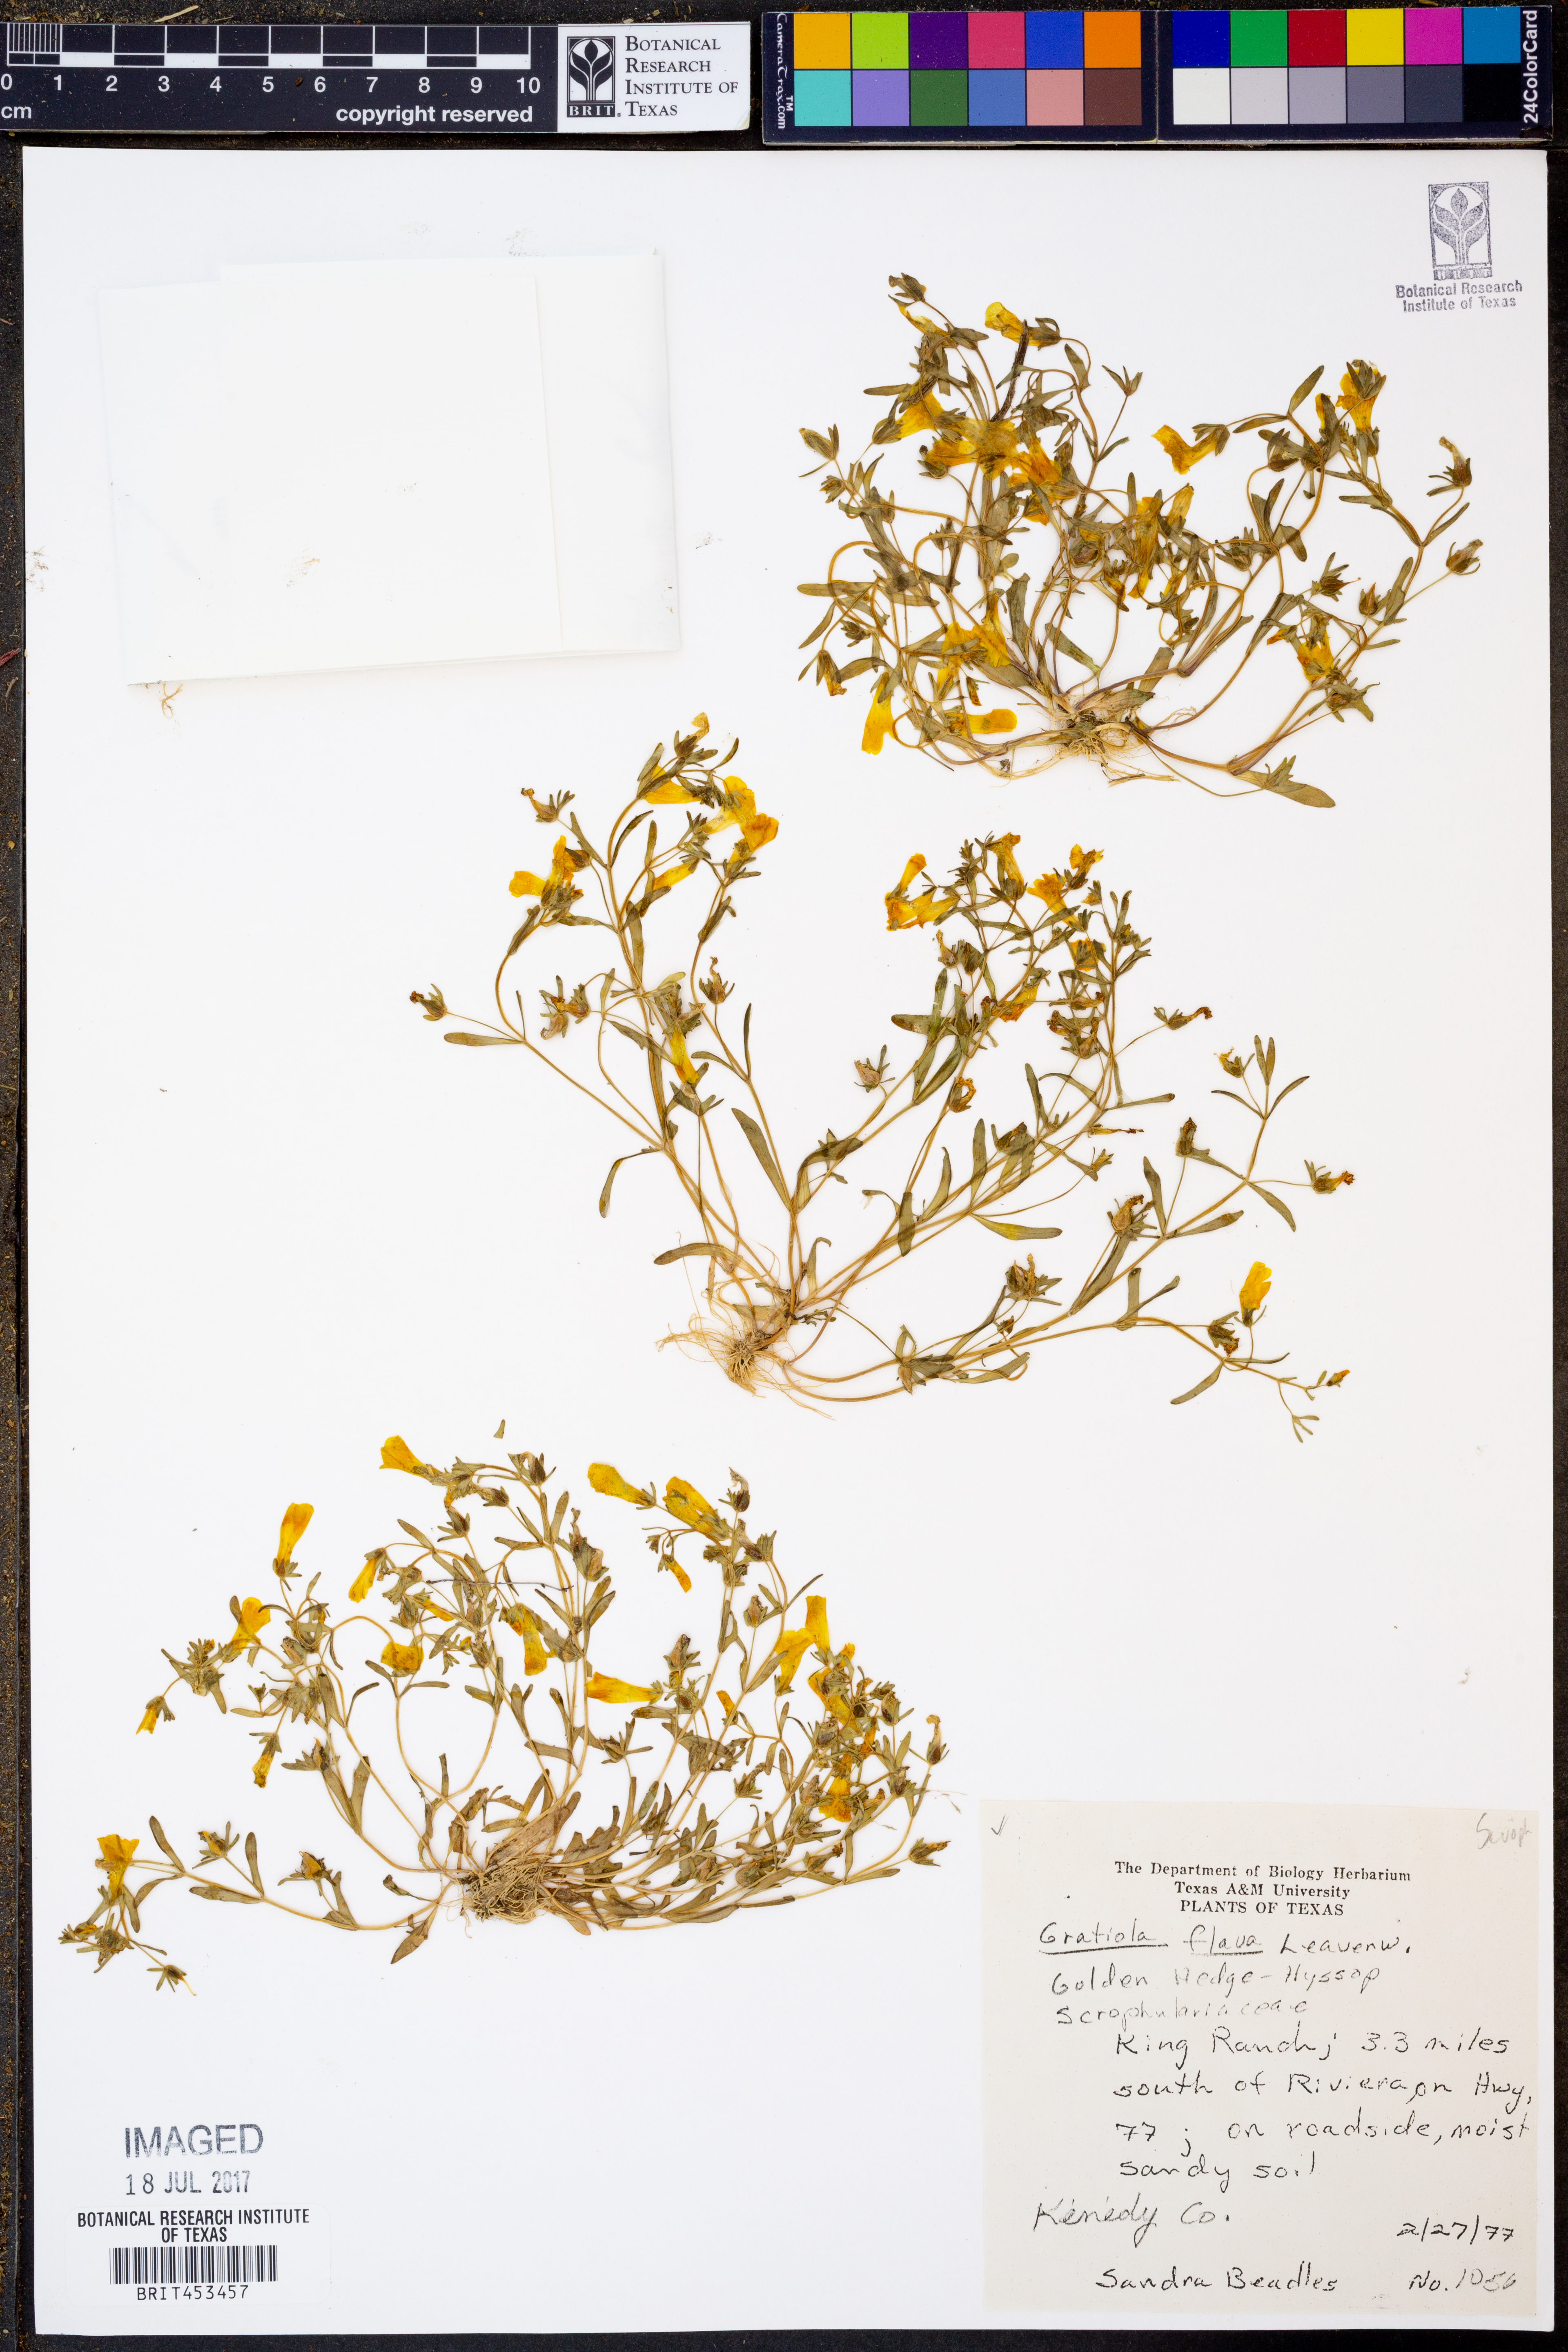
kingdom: Plantae
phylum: Tracheophyta
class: Magnoliopsida
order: Lamiales
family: Plantaginaceae
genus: Gratiola
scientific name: Gratiola flava
